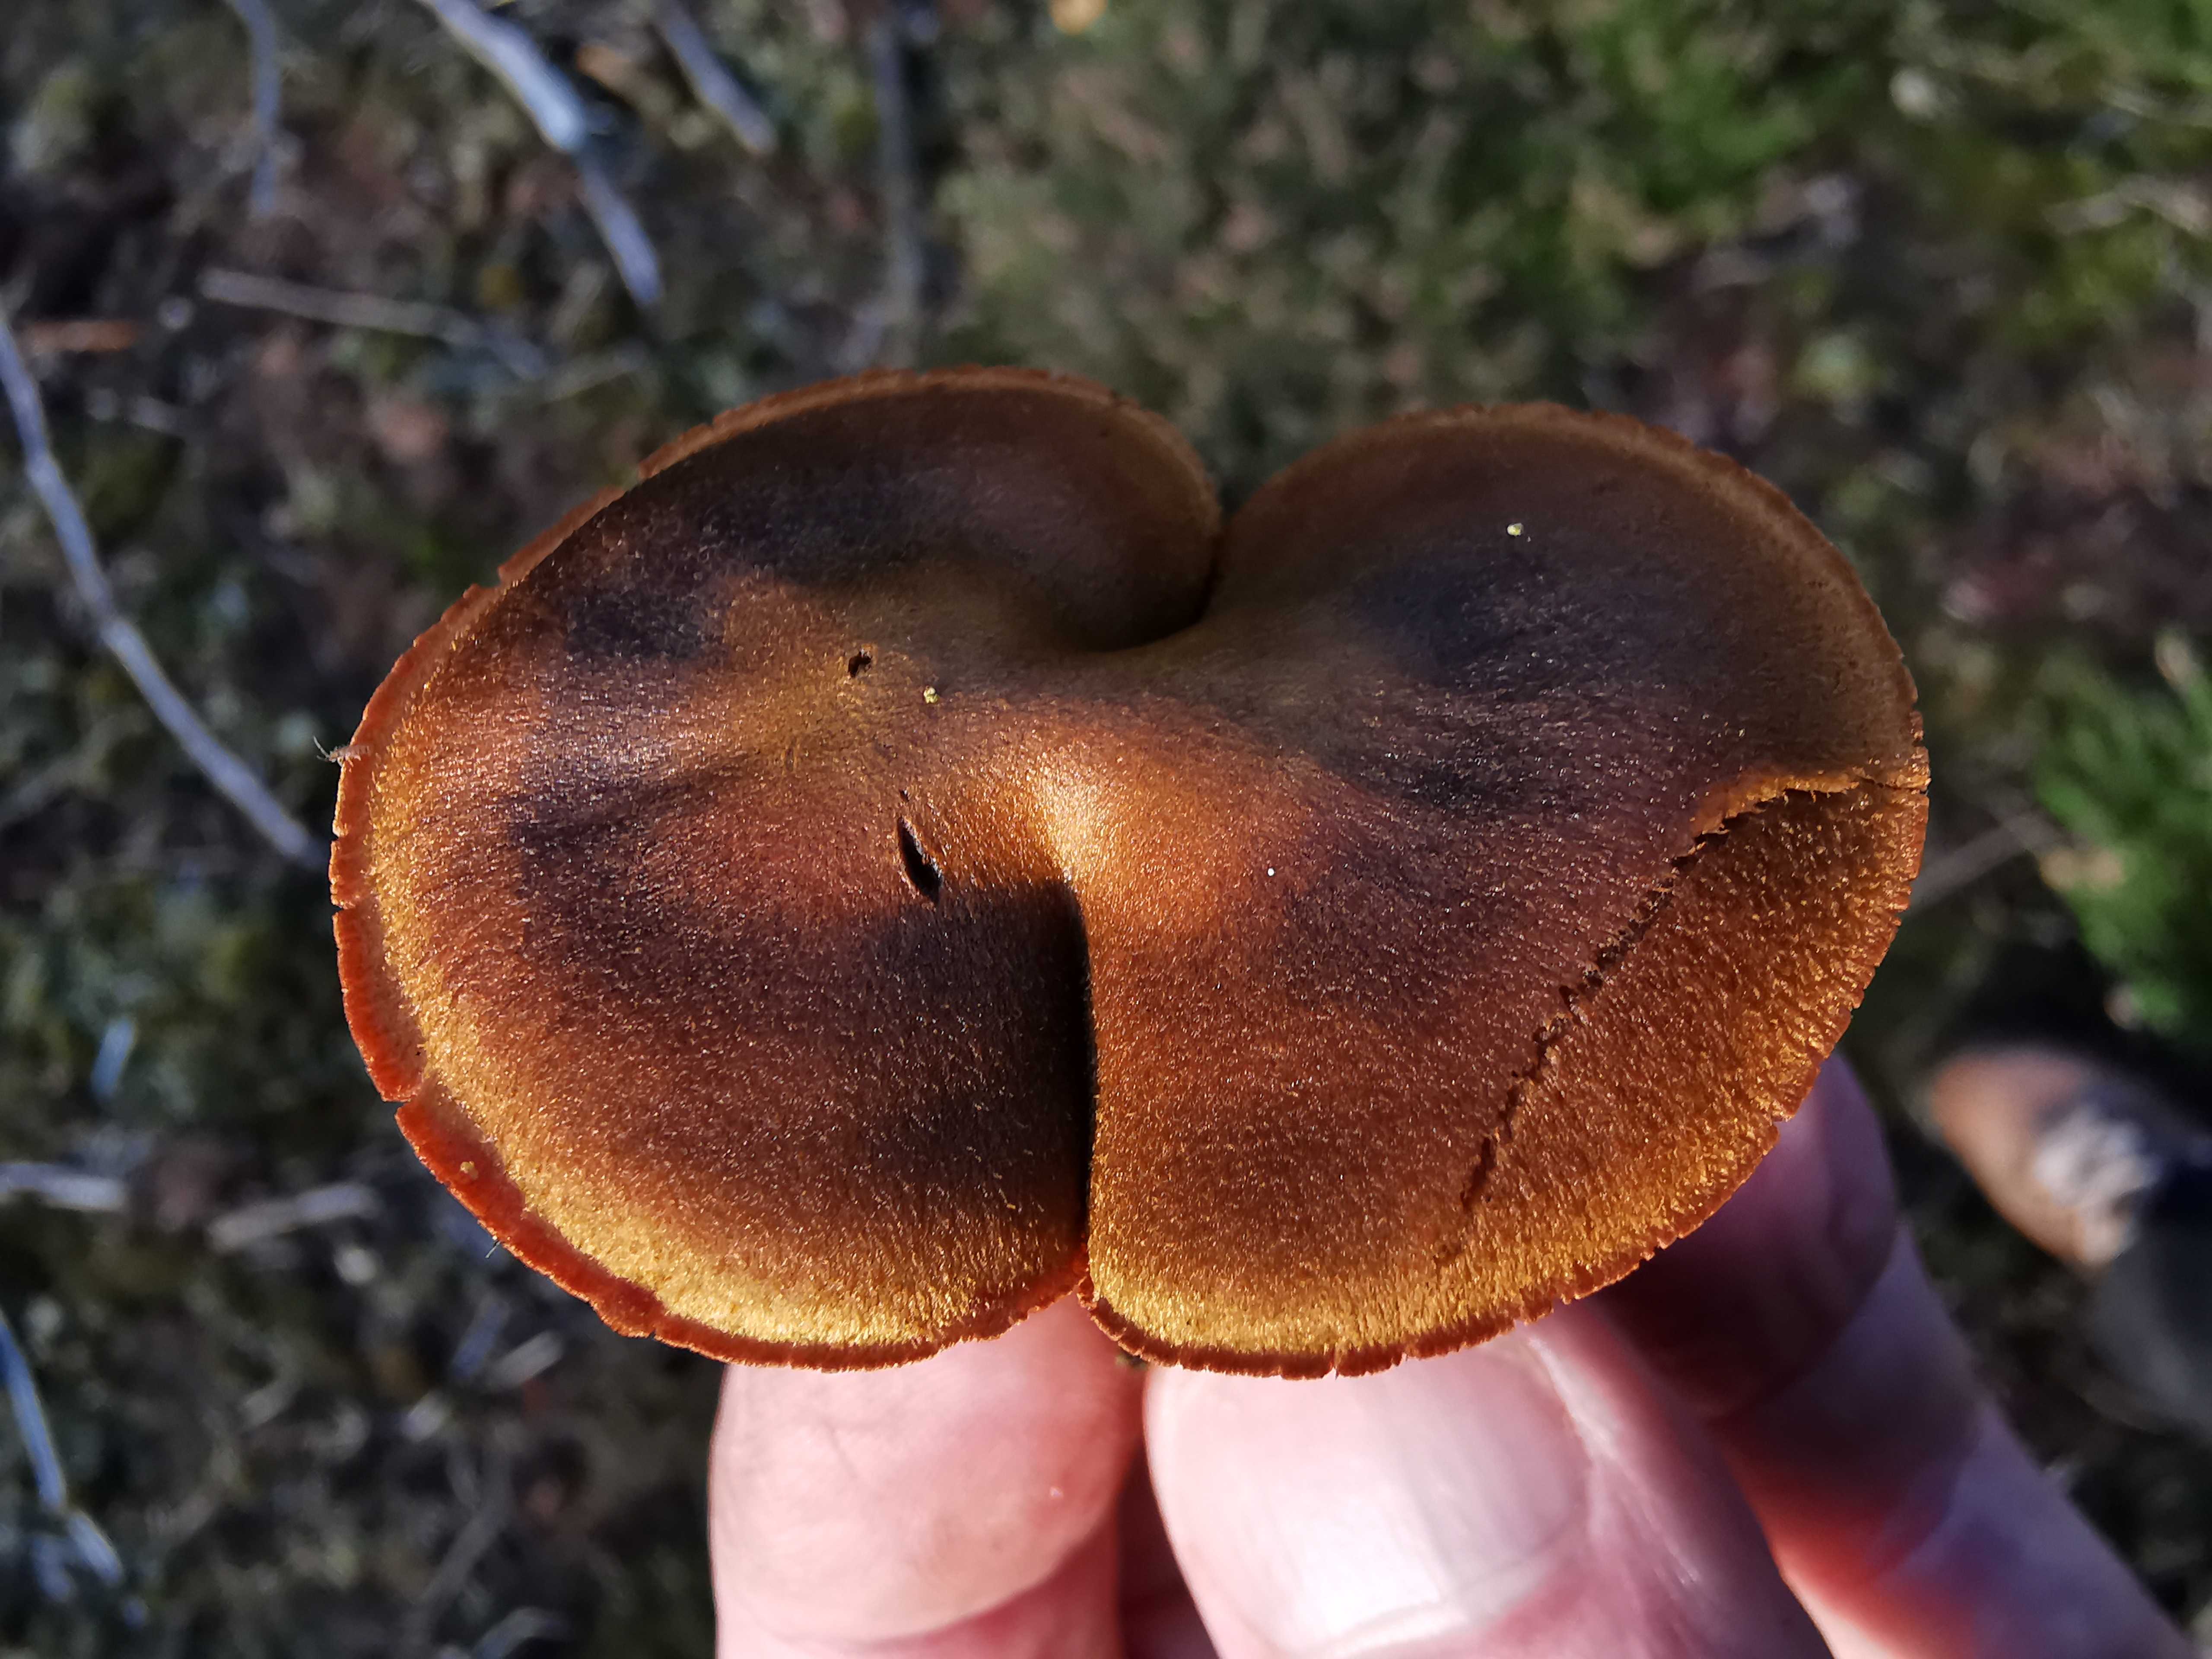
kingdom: Fungi
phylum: Basidiomycota
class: Agaricomycetes
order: Agaricales
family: Cortinariaceae
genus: Cortinarius
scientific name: Cortinarius
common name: cinnoberbladet slørhat
